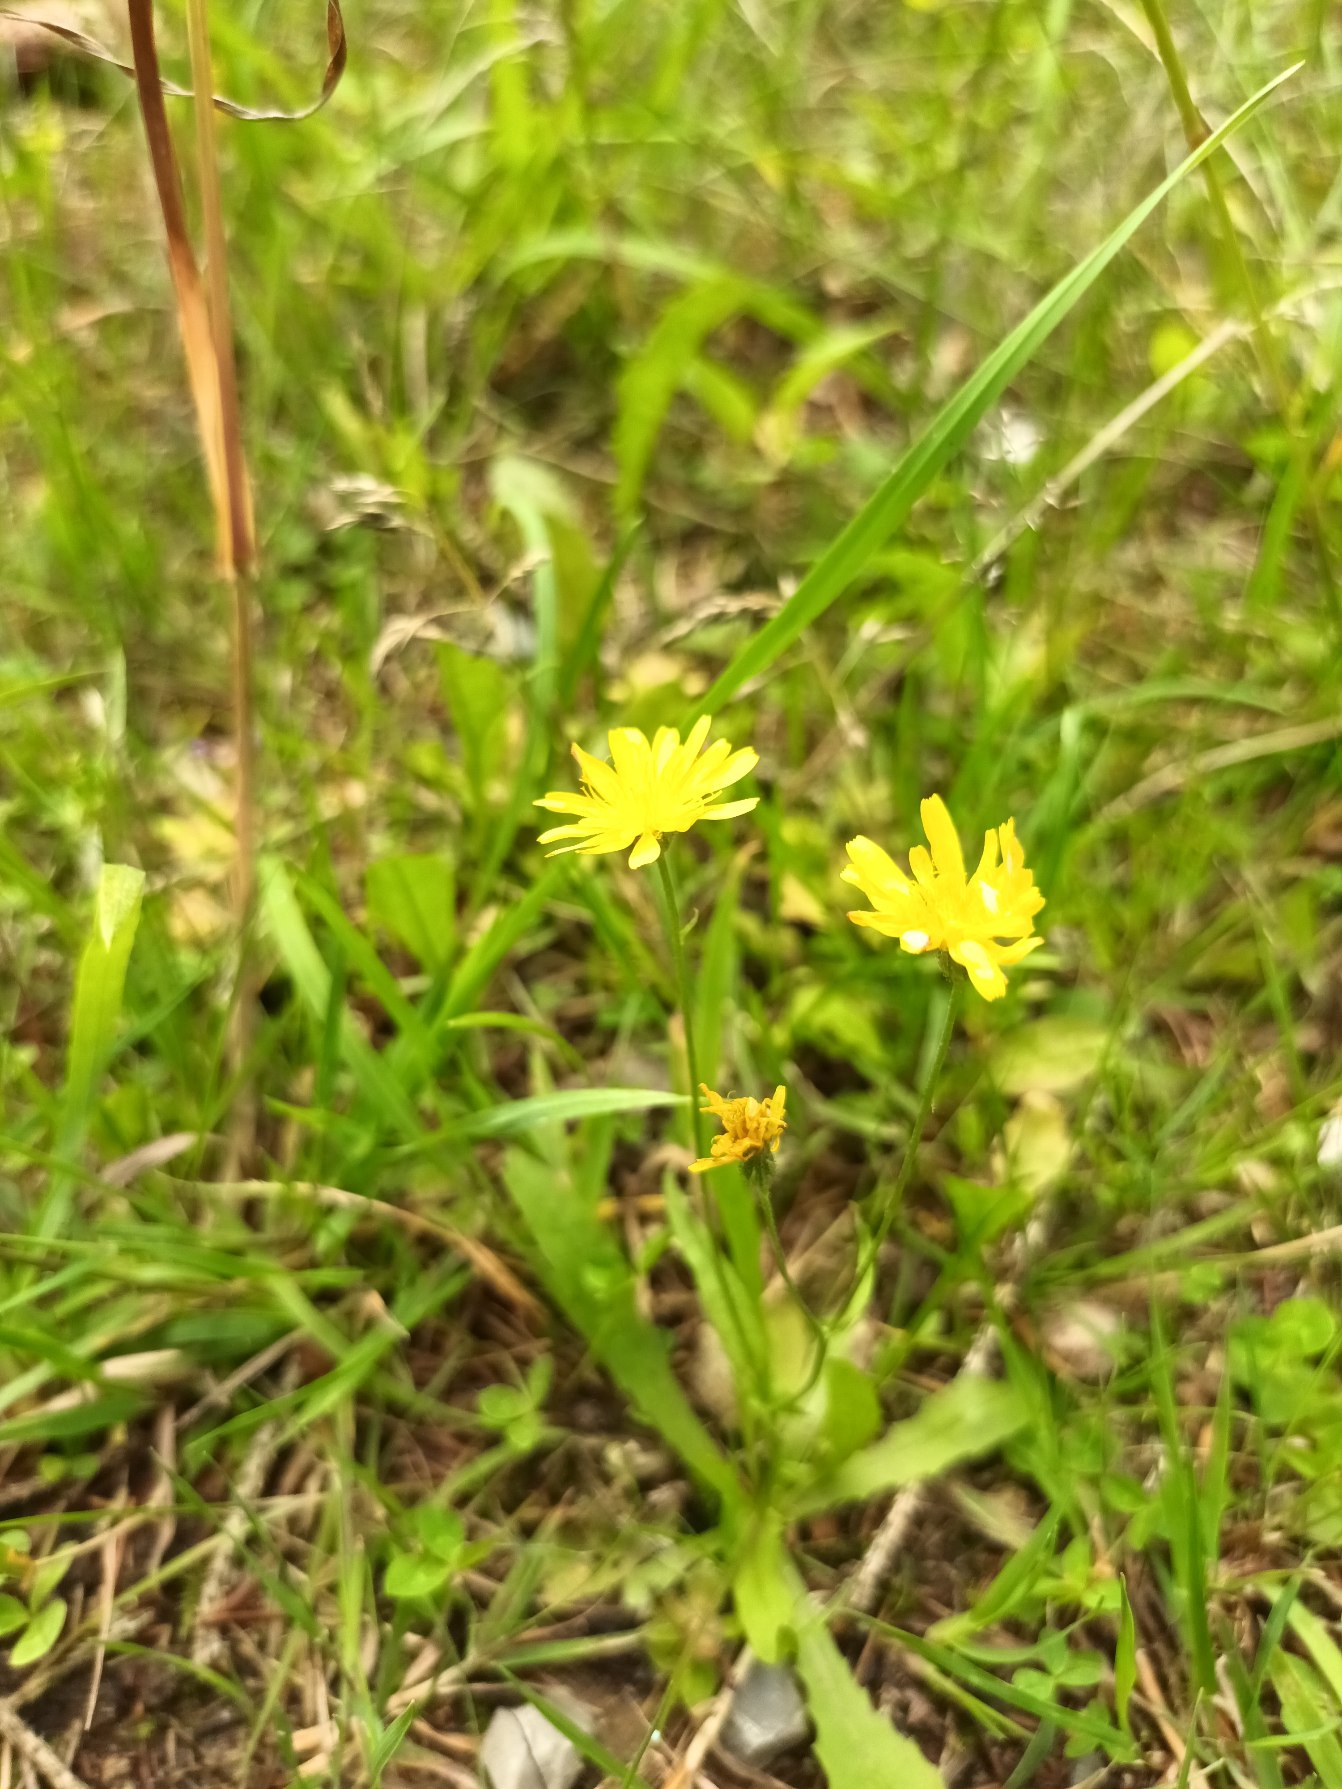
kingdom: Plantae
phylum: Tracheophyta
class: Magnoliopsida
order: Asterales
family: Asteraceae
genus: Crepis
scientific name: Crepis capillaris
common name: Grøn høgeskæg
